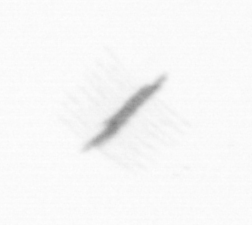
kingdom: Chromista
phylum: Ochrophyta
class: Bacillariophyceae
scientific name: Bacillariophyceae
